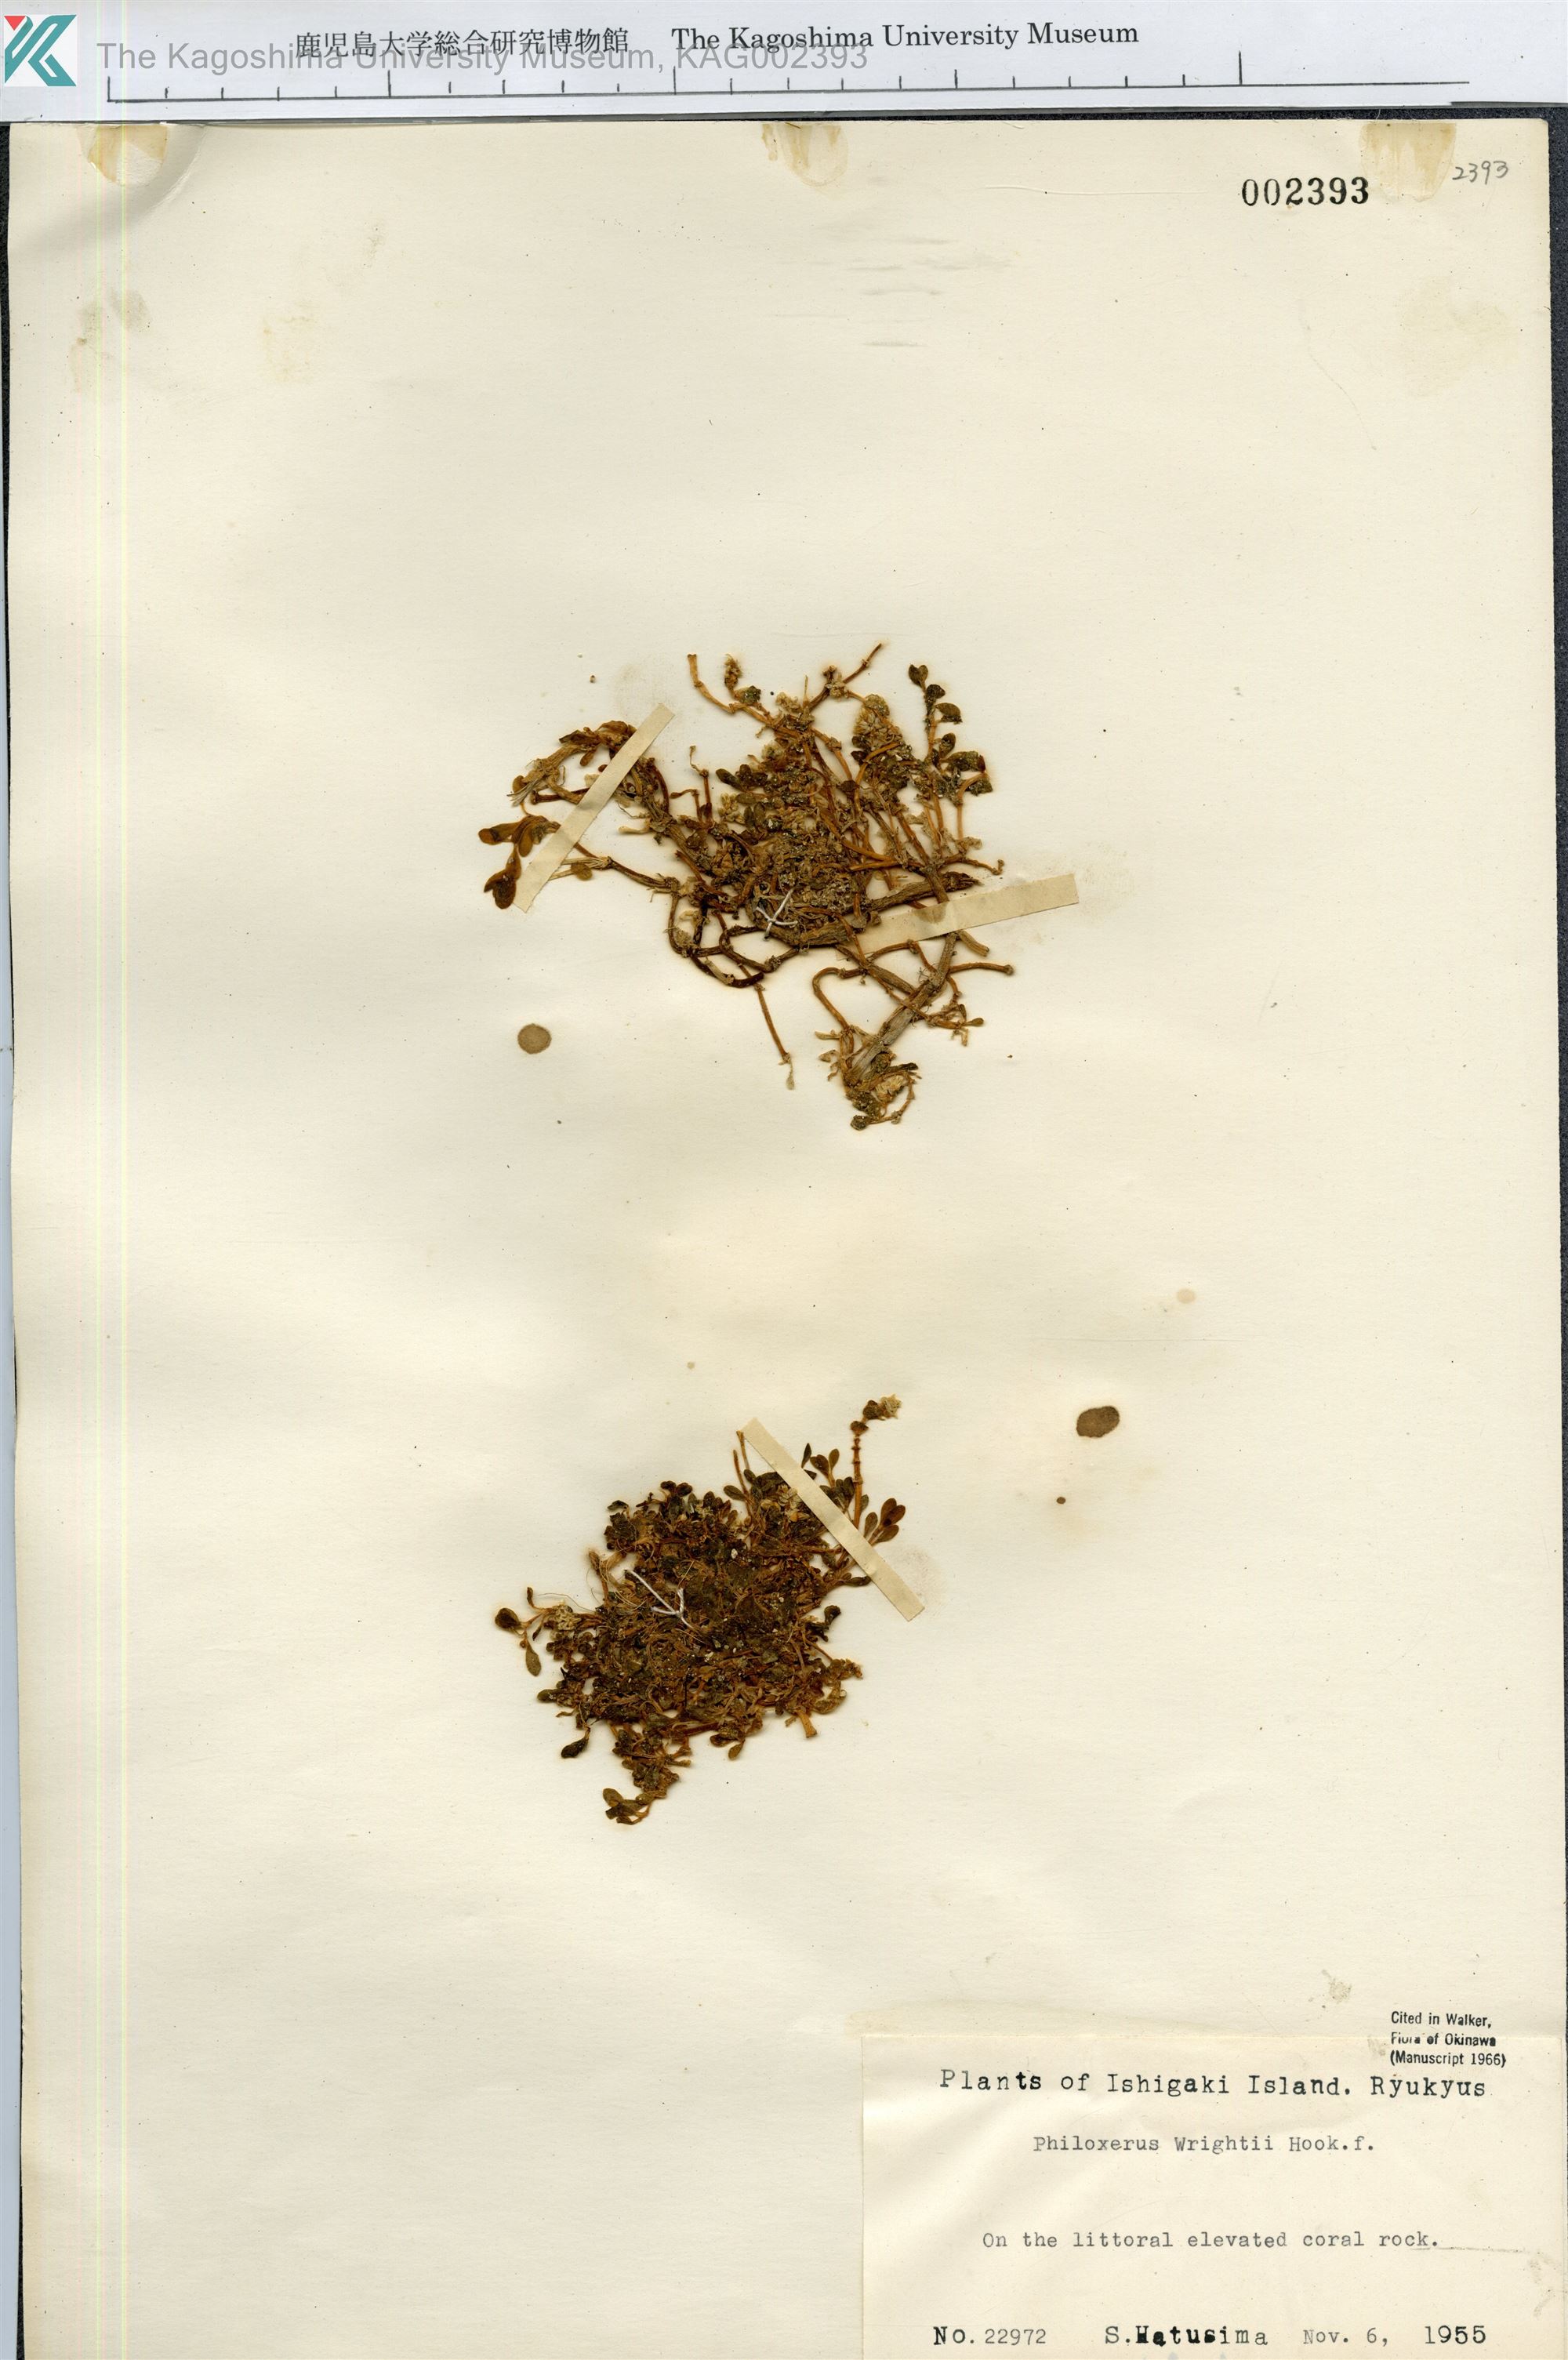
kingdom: Plantae
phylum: Tracheophyta
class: Magnoliopsida
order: Caryophyllales
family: Amaranthaceae
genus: Gomphrena
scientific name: Gomphrena wrightii
